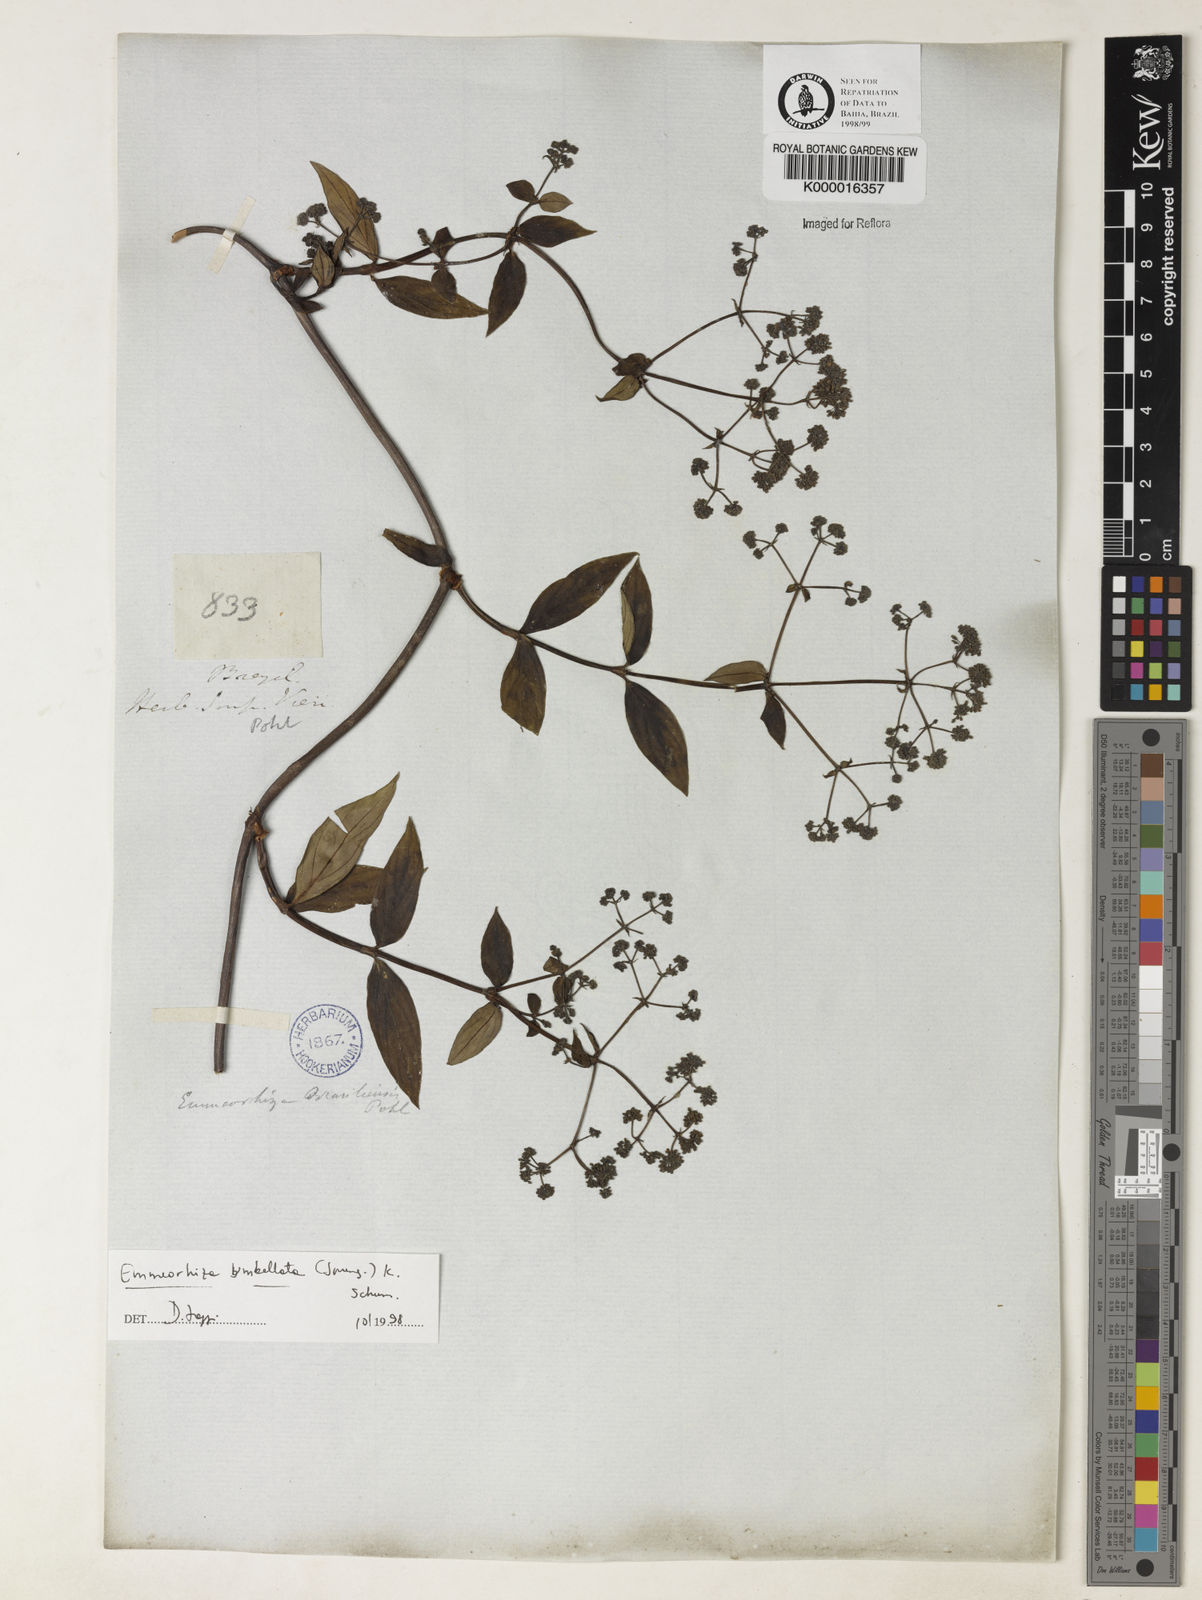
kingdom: Plantae
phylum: Tracheophyta
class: Magnoliopsida
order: Gentianales
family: Rubiaceae
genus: Emmeorhiza
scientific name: Emmeorhiza umbellata
